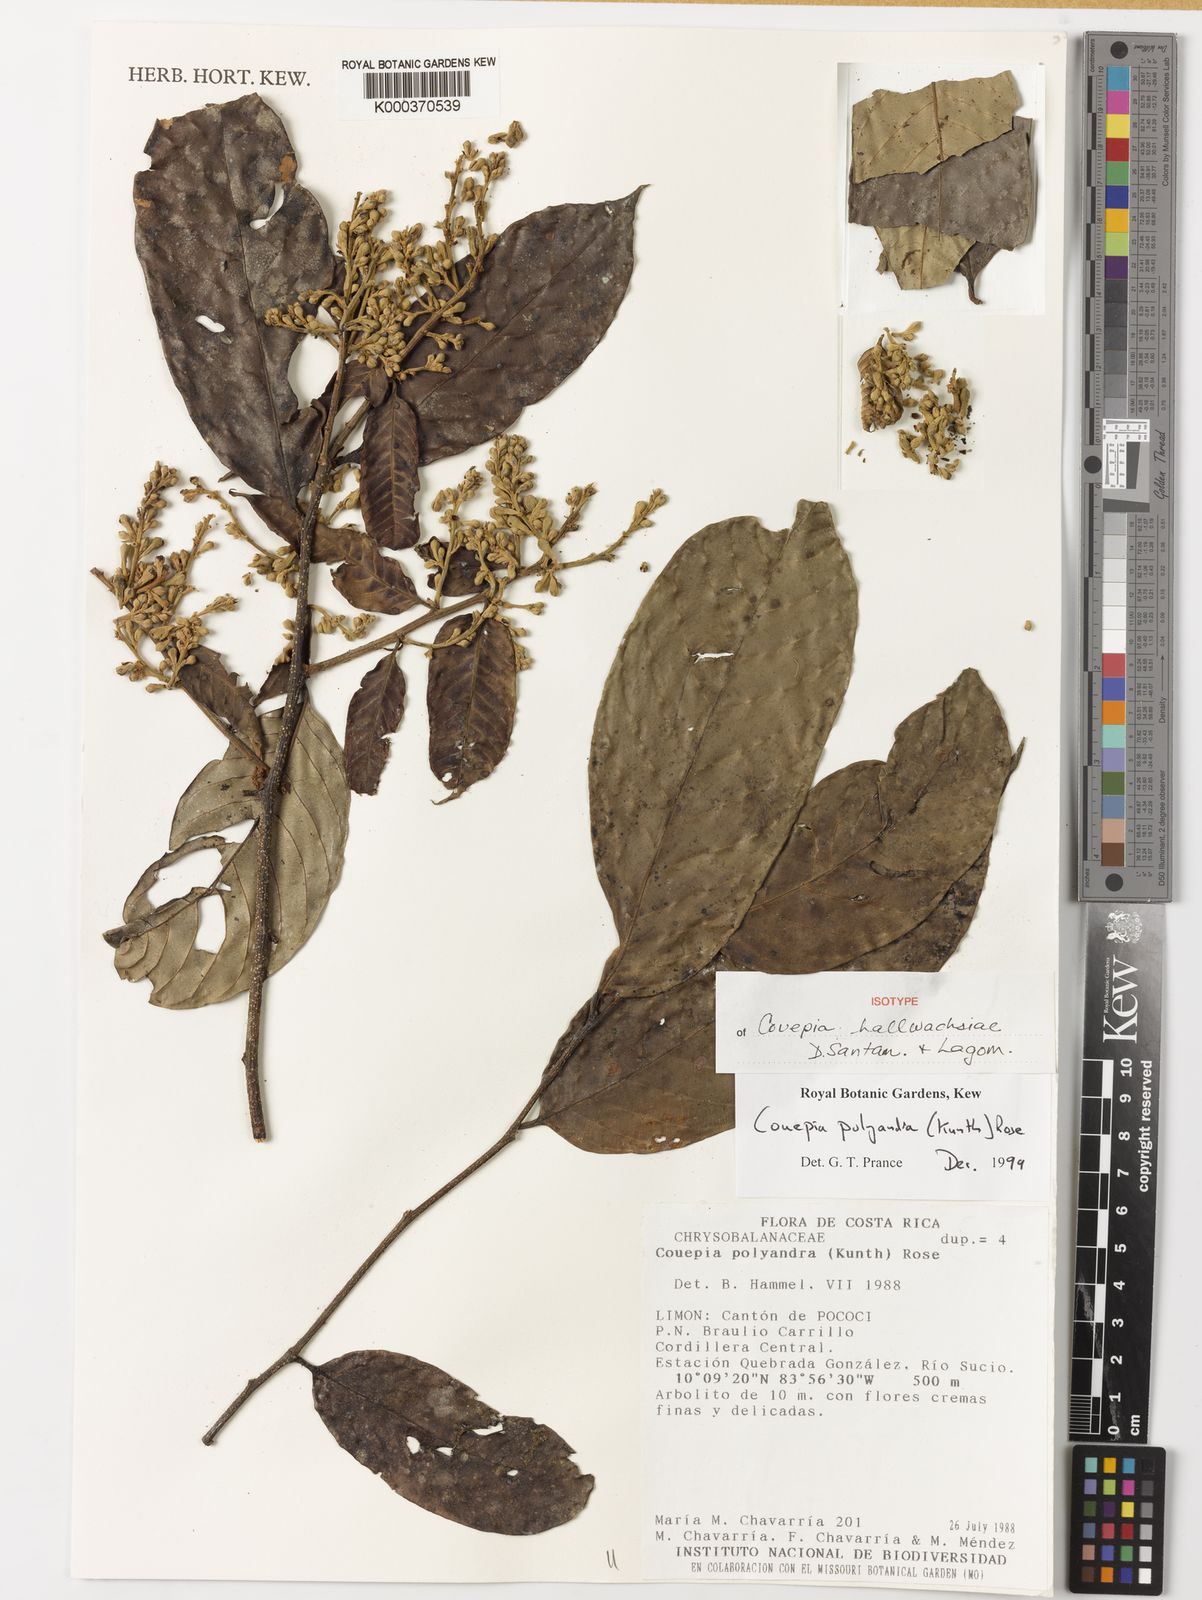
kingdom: Plantae
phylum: Tracheophyta
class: Magnoliopsida
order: Malpighiales
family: Chrysobalanaceae
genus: Couepia
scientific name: Couepia hallwachsiae
